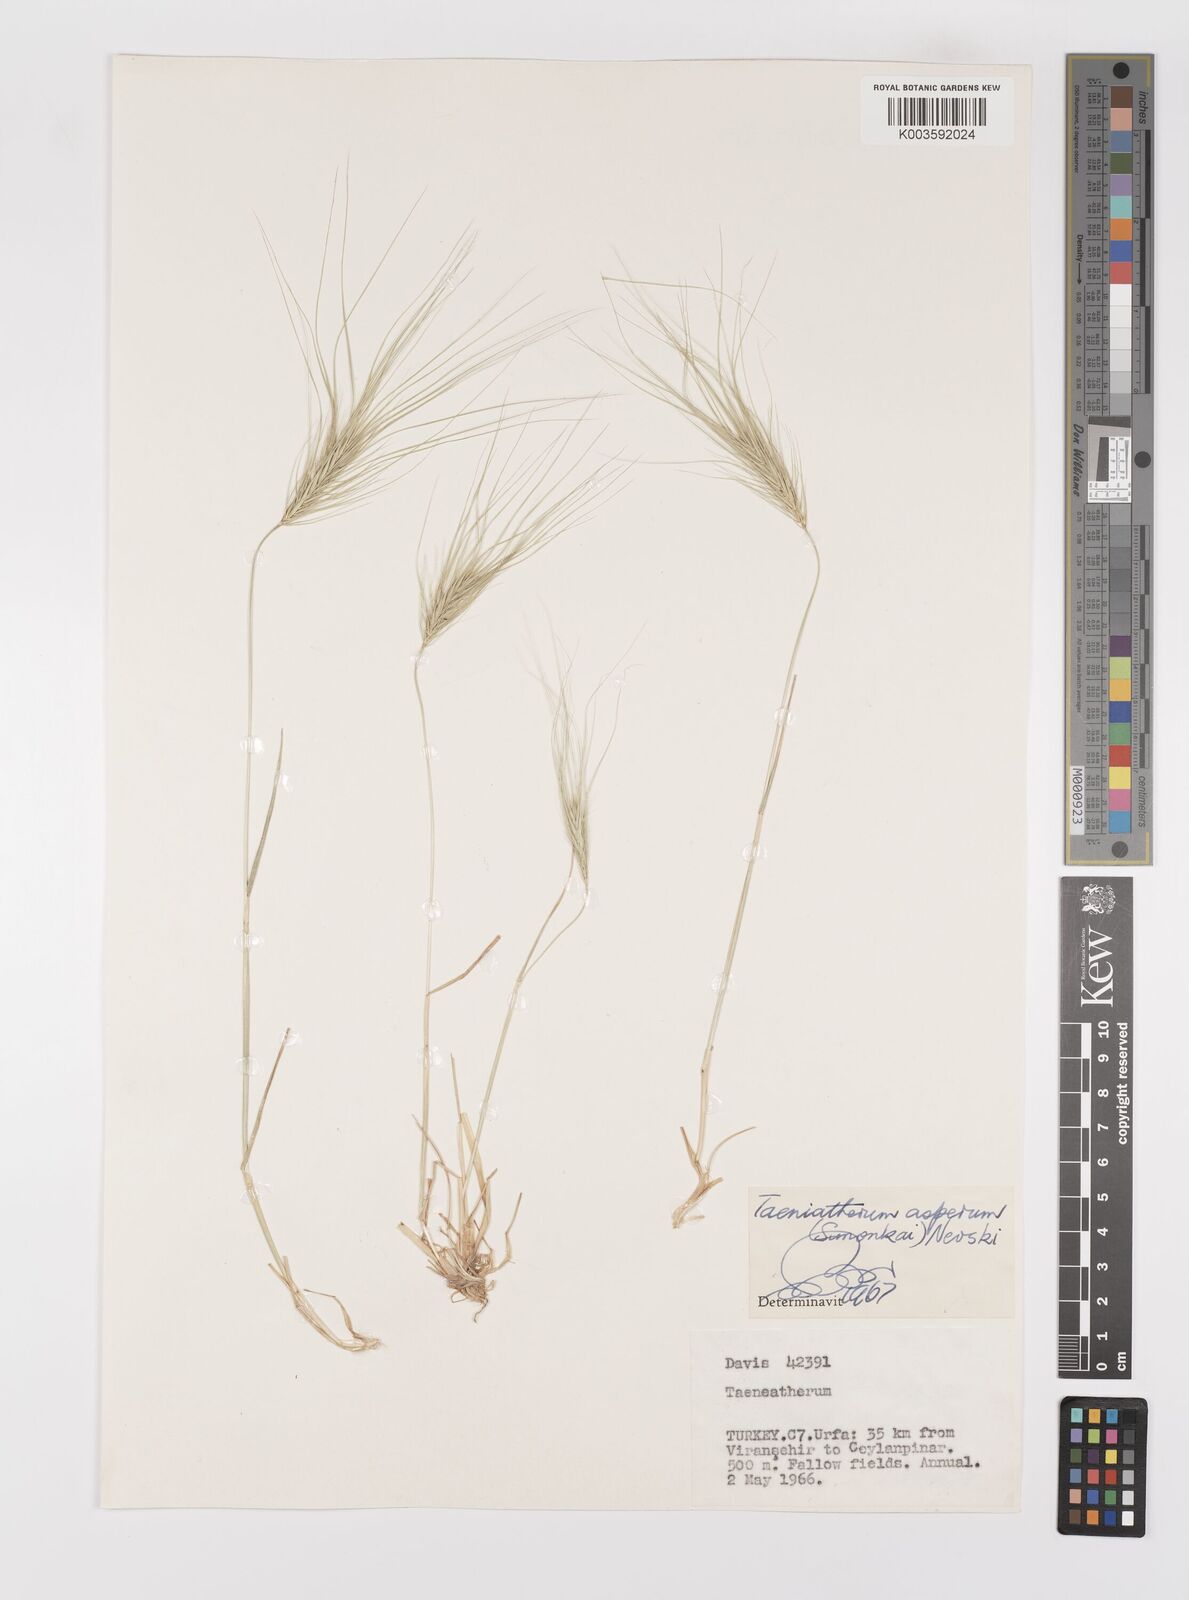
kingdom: Plantae
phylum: Tracheophyta
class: Liliopsida
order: Poales
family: Poaceae
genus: Taeniatherum
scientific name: Taeniatherum caput-medusae
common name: Medusahead
